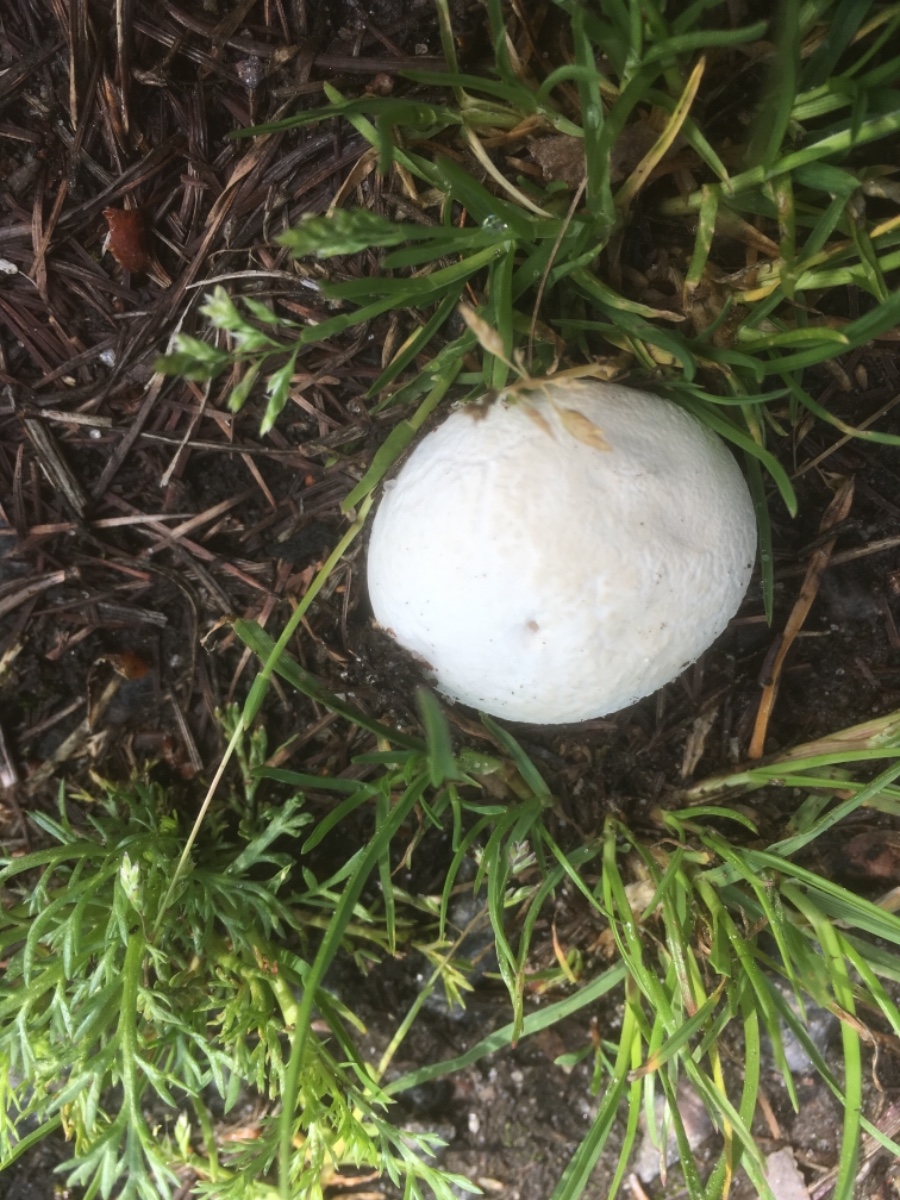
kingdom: Fungi
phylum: Basidiomycota
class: Agaricomycetes
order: Agaricales
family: Lycoperdaceae
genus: Bovista
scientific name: Bovista
